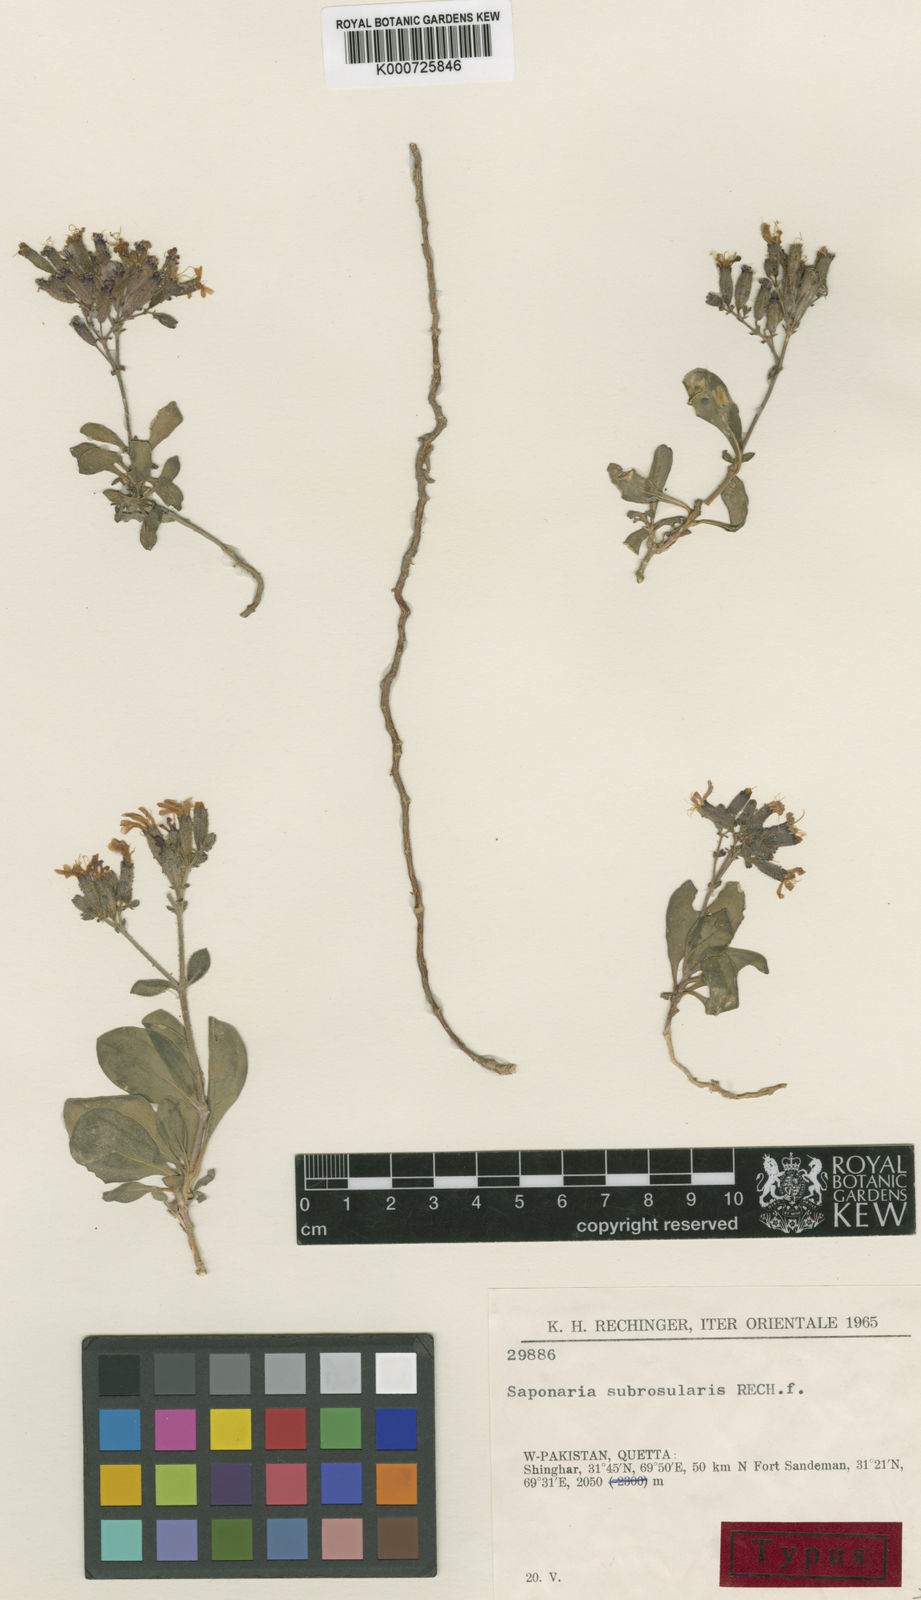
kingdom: Plantae
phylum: Tracheophyta
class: Magnoliopsida
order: Caryophyllales
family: Caryophyllaceae
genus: Vaccaria
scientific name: Vaccaria
